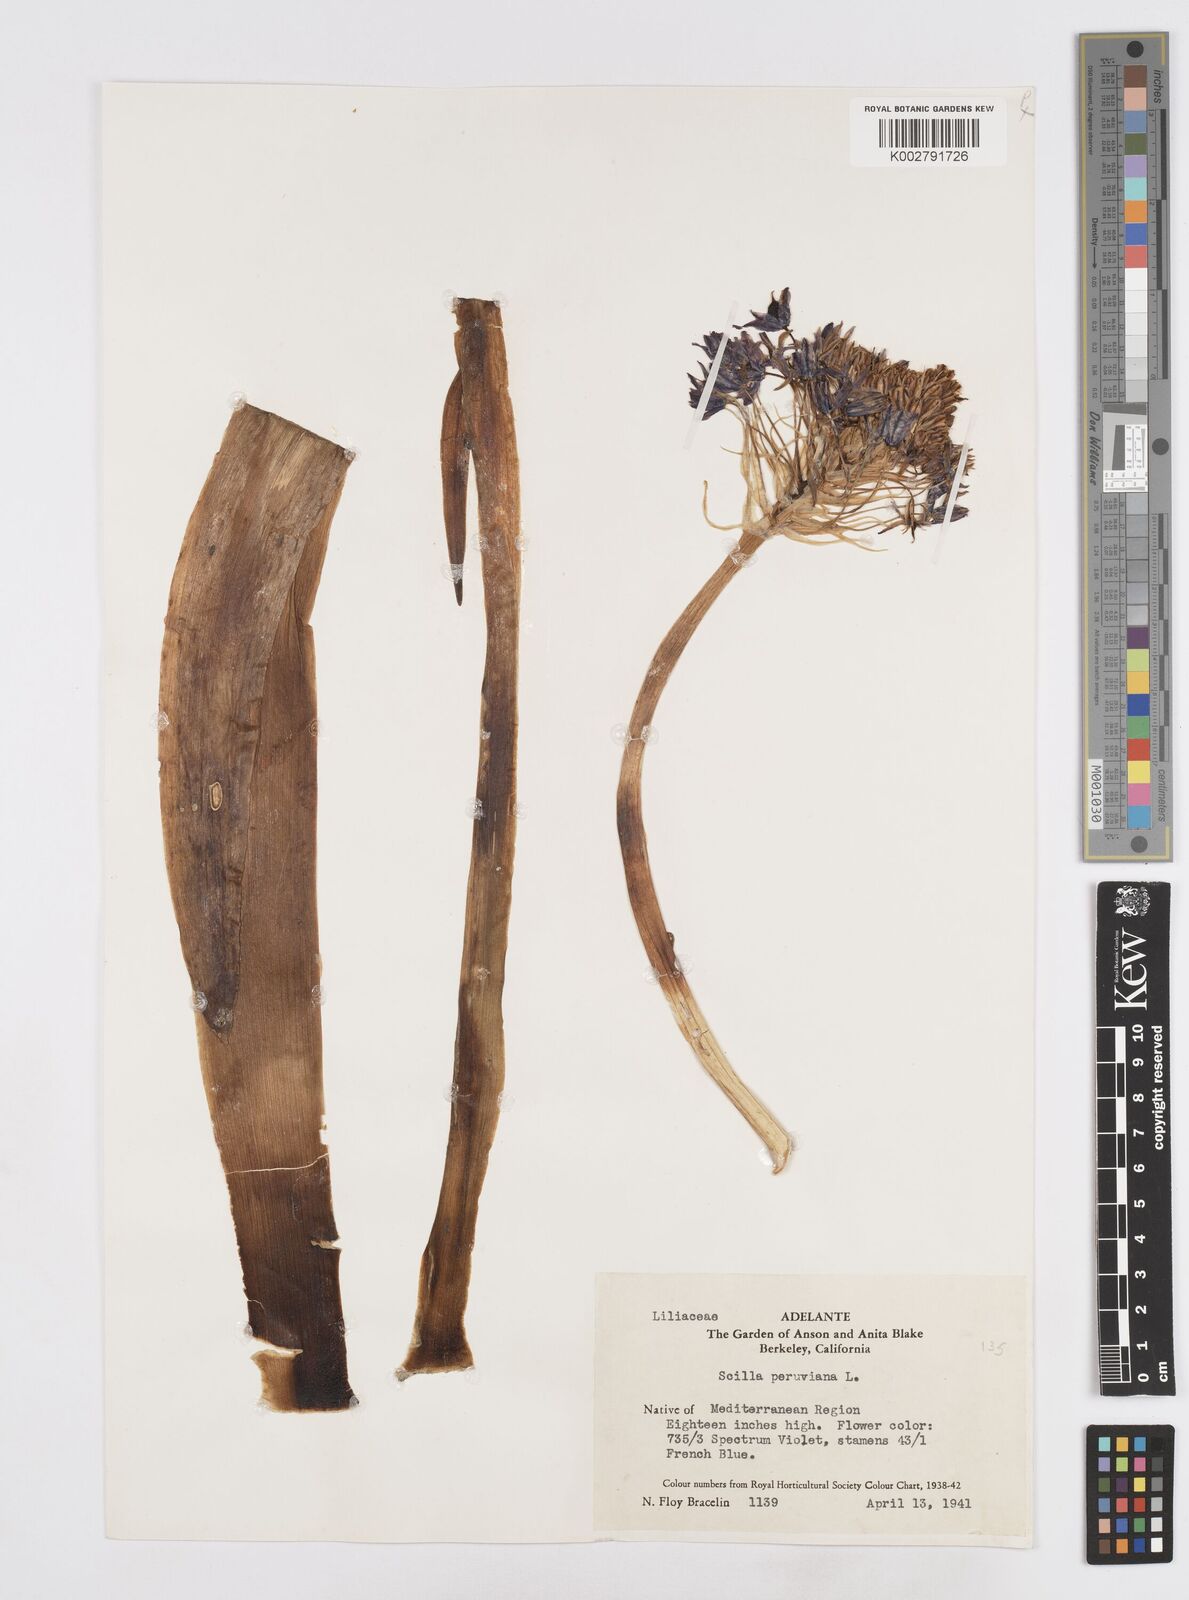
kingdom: Plantae
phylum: Tracheophyta
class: Liliopsida
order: Asparagales
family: Asparagaceae
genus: Scilla
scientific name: Scilla peruviana
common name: Portuguese squill
